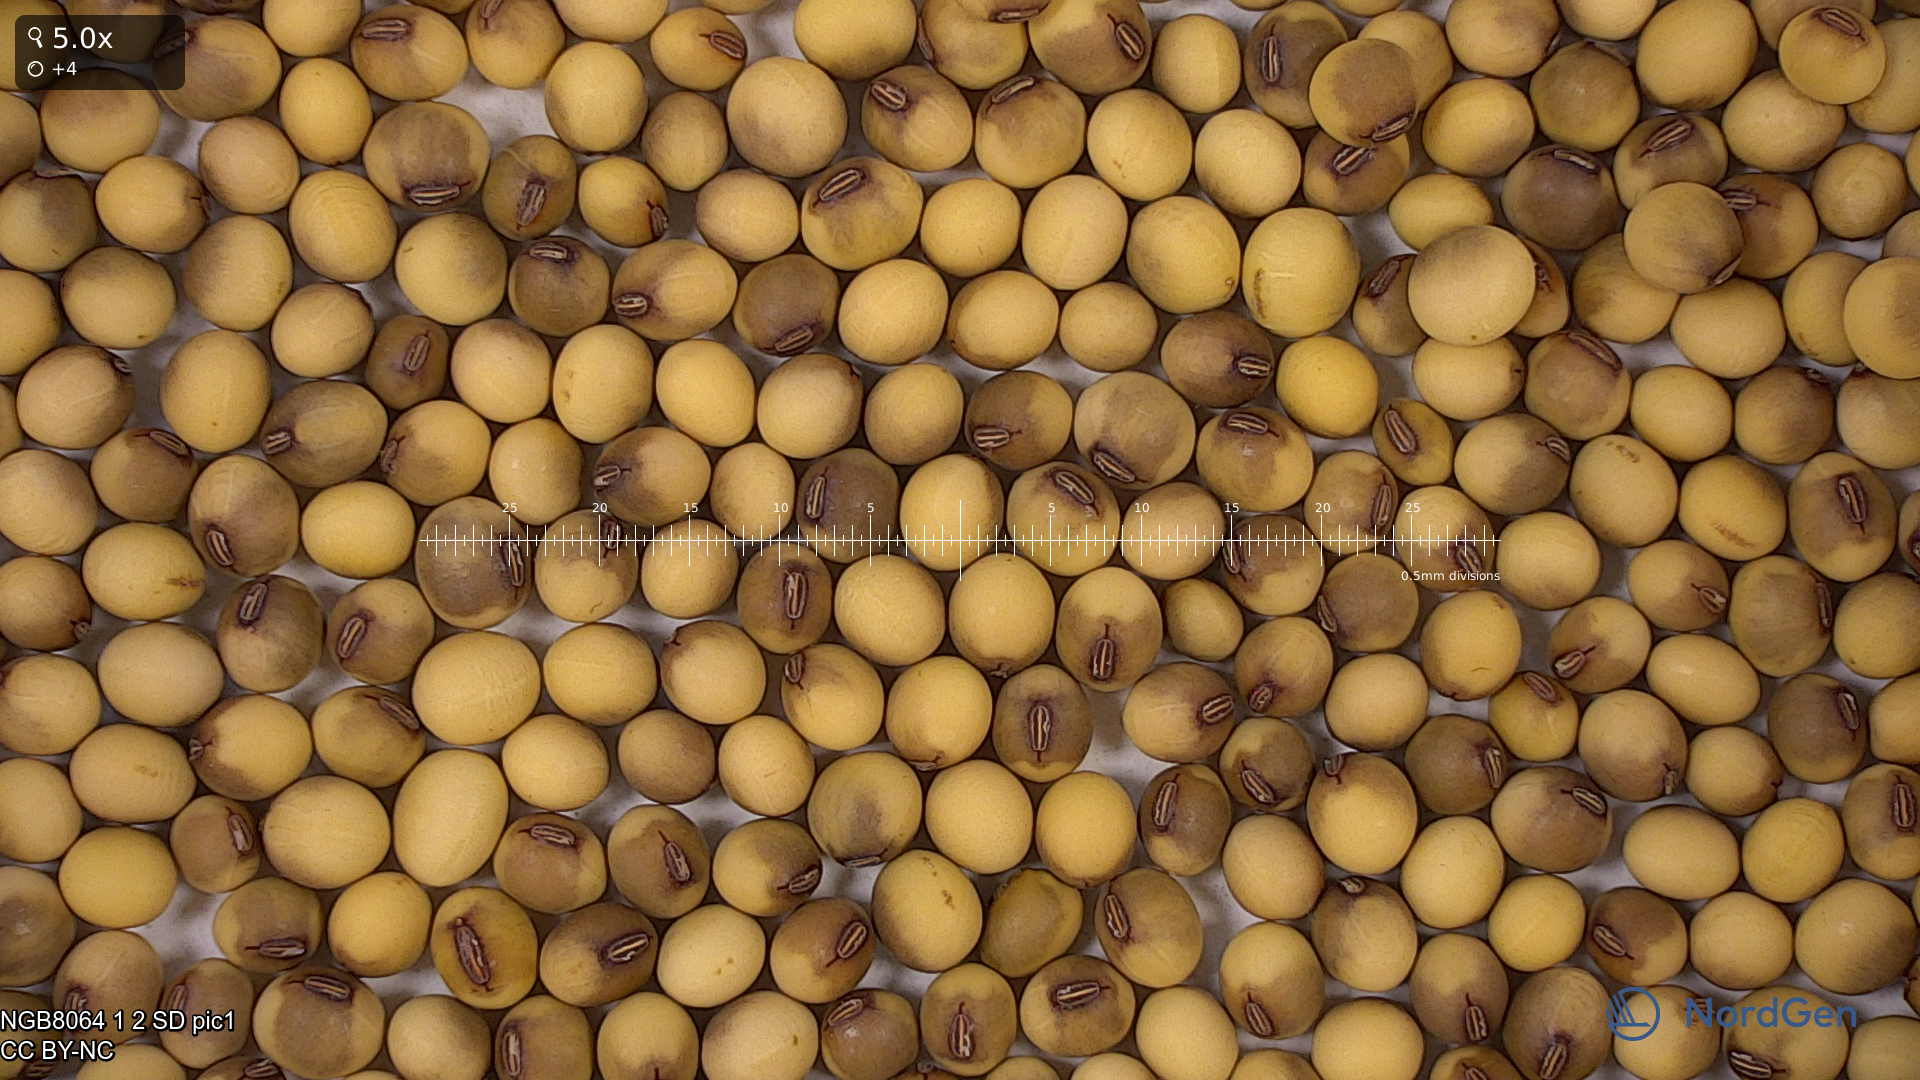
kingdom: Plantae
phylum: Tracheophyta
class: Magnoliopsida
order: Fabales
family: Fabaceae
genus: Glycine
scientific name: Glycine max
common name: Soya-bean
